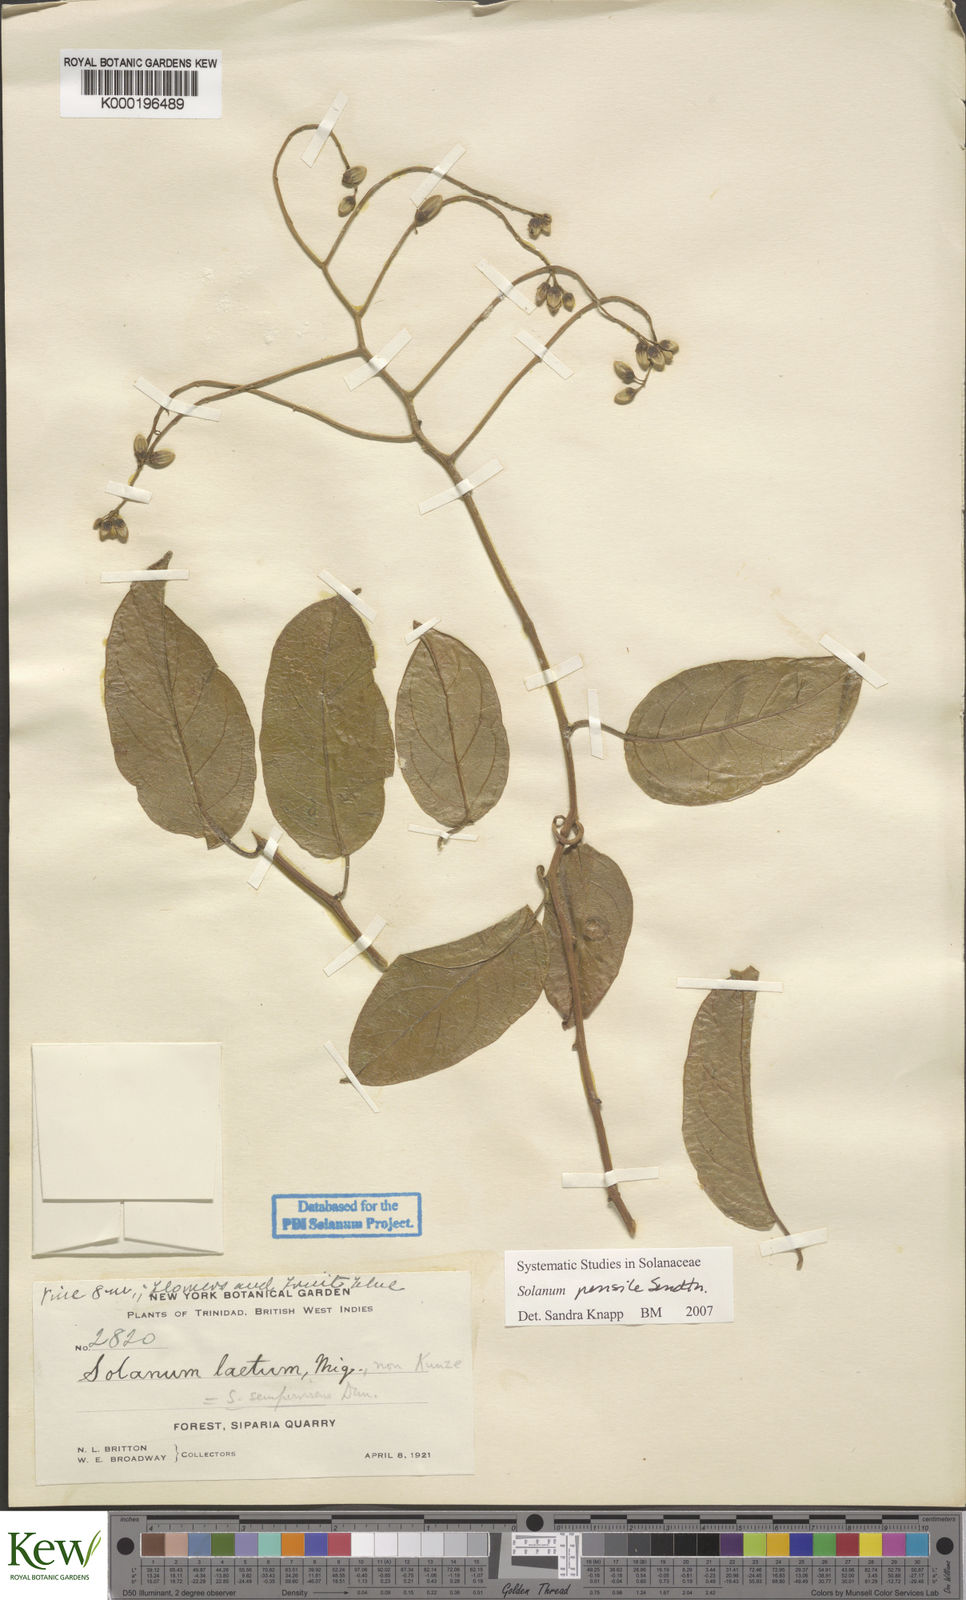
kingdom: Plantae
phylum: Tracheophyta
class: Magnoliopsida
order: Solanales
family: Solanaceae
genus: Solanum
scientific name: Solanum uncinellum
